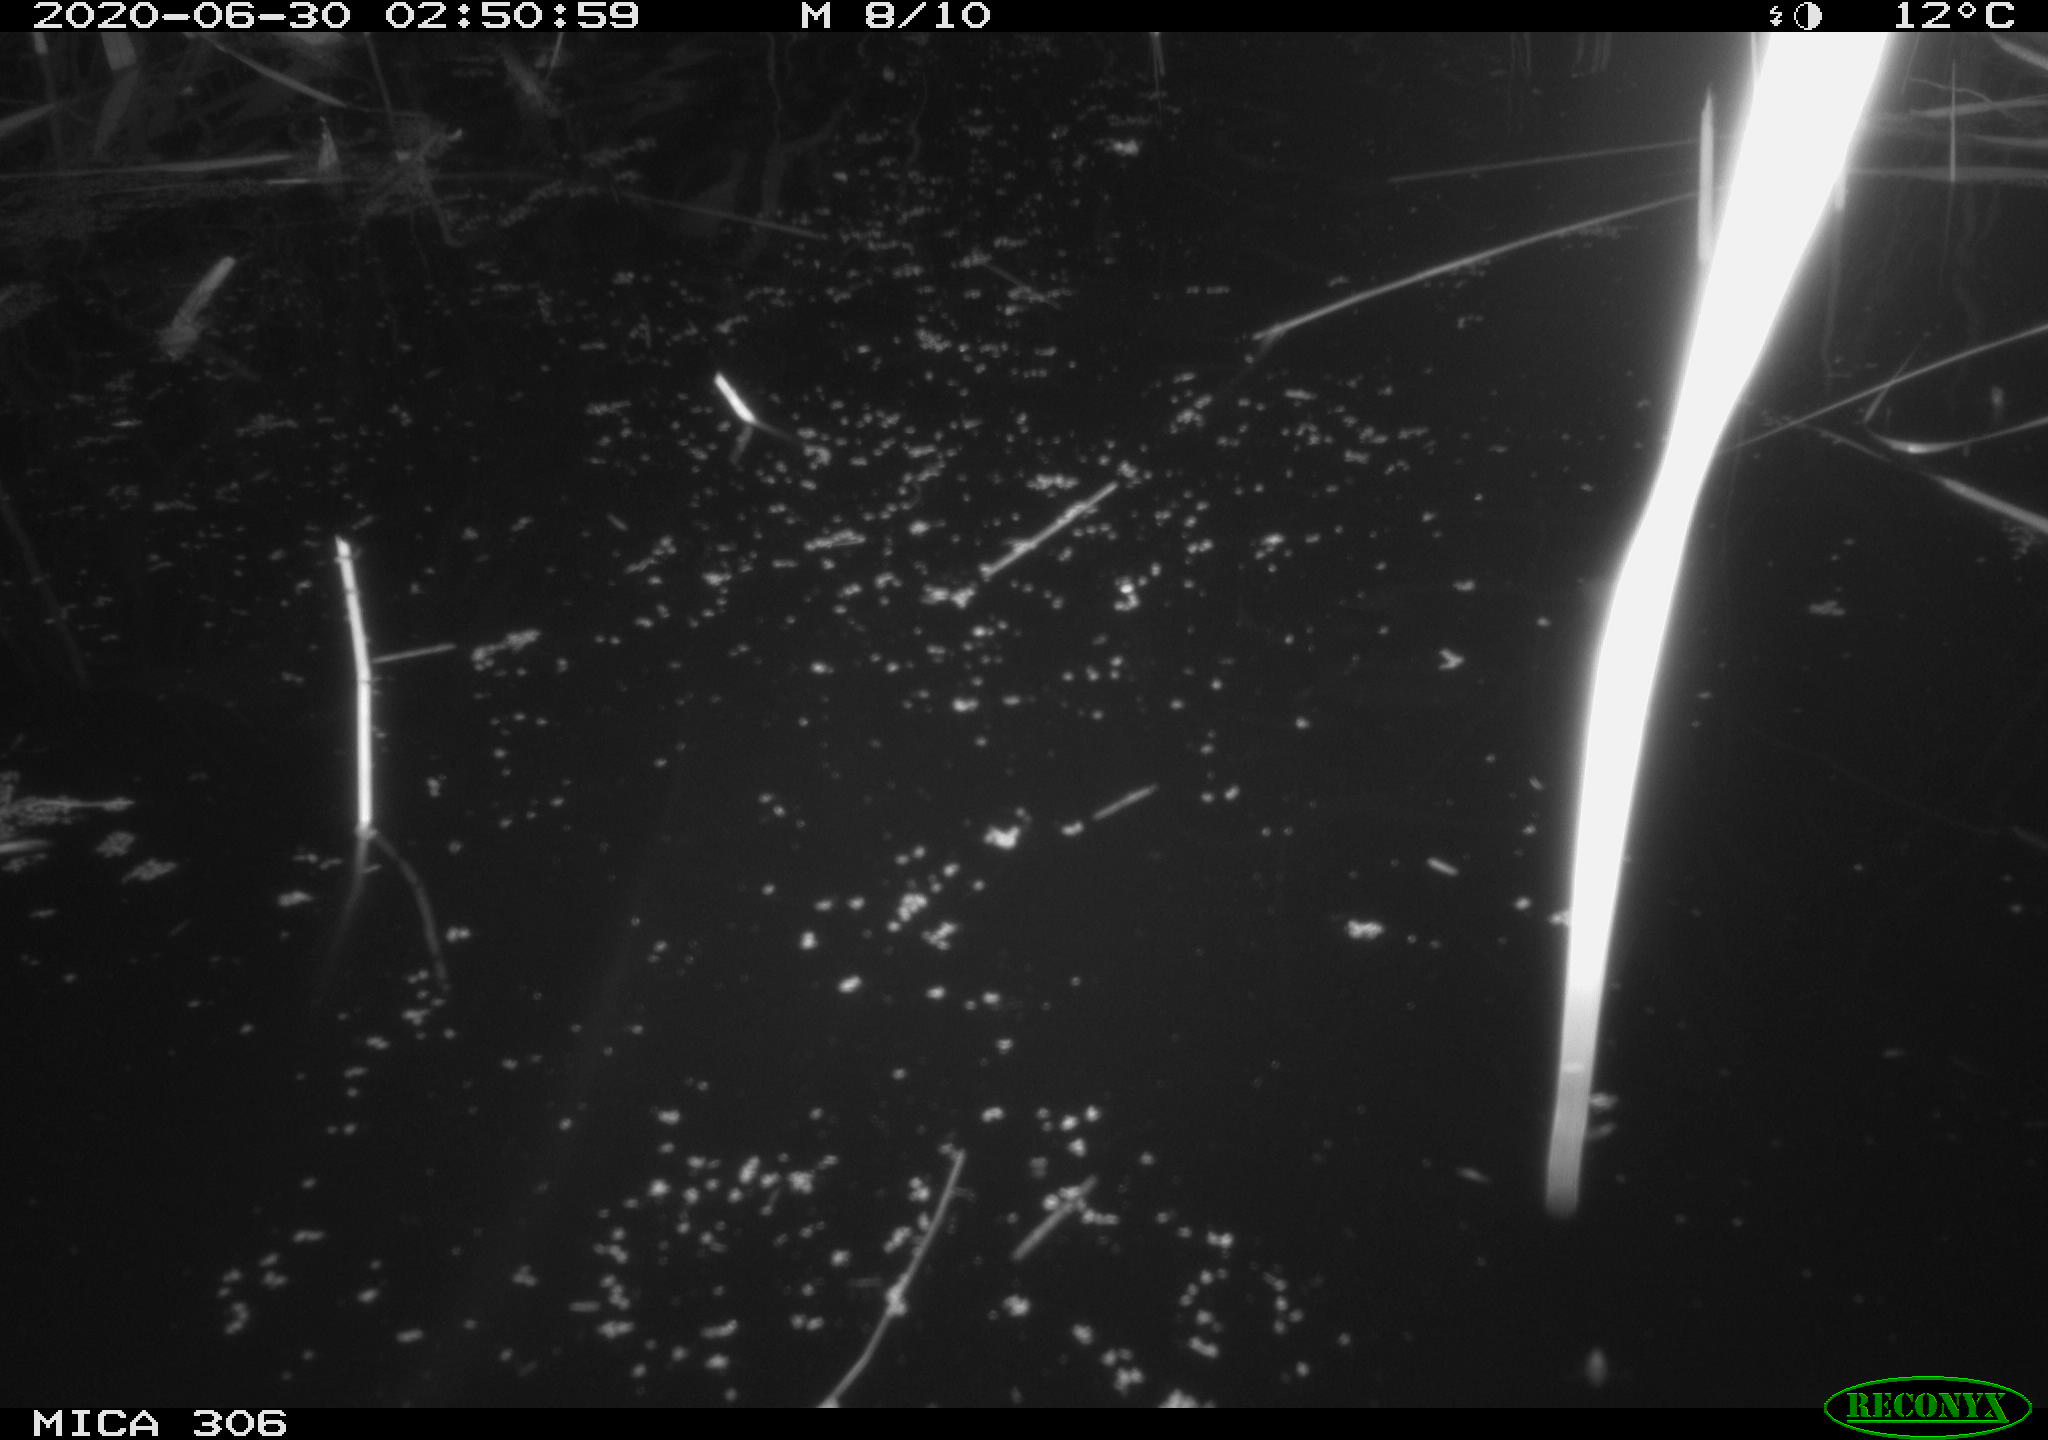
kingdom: Animalia
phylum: Chordata
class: Mammalia
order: Rodentia
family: Muridae
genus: Rattus
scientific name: Rattus norvegicus
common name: Brown rat
